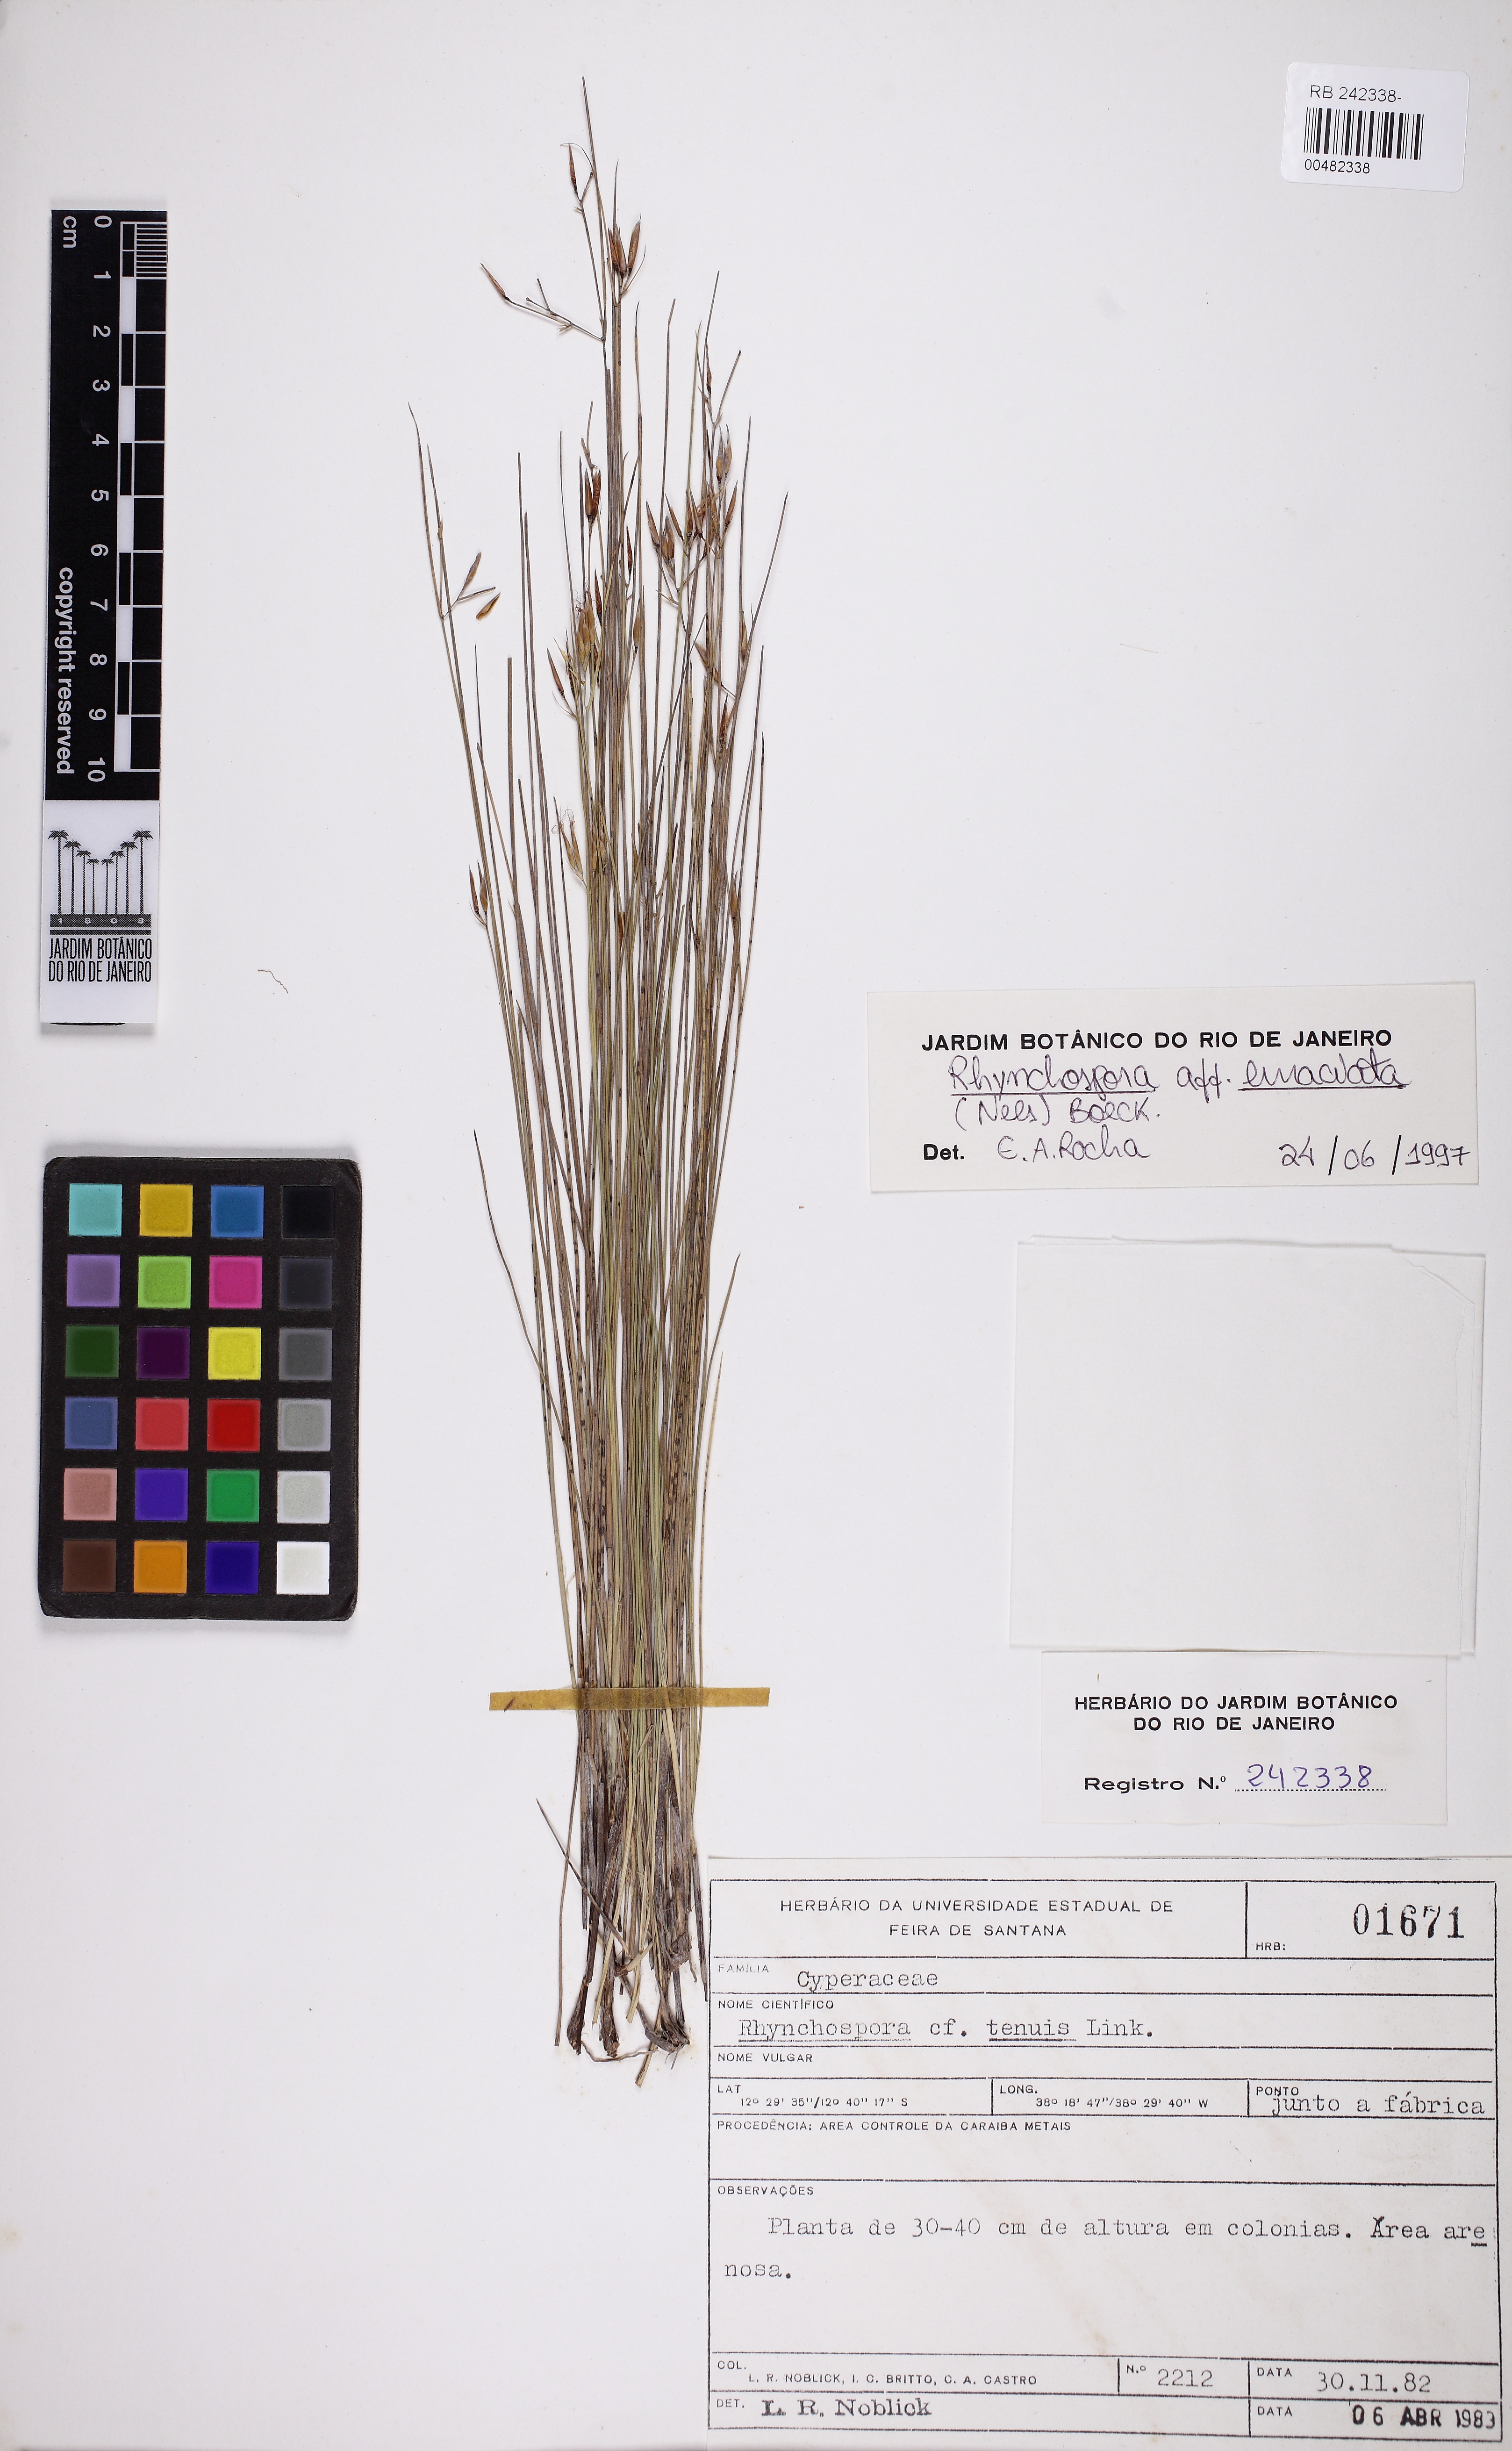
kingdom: Plantae
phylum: Tracheophyta
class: Liliopsida
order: Poales
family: Cyperaceae
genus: Rhynchospora
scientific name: Rhynchospora filiformis
